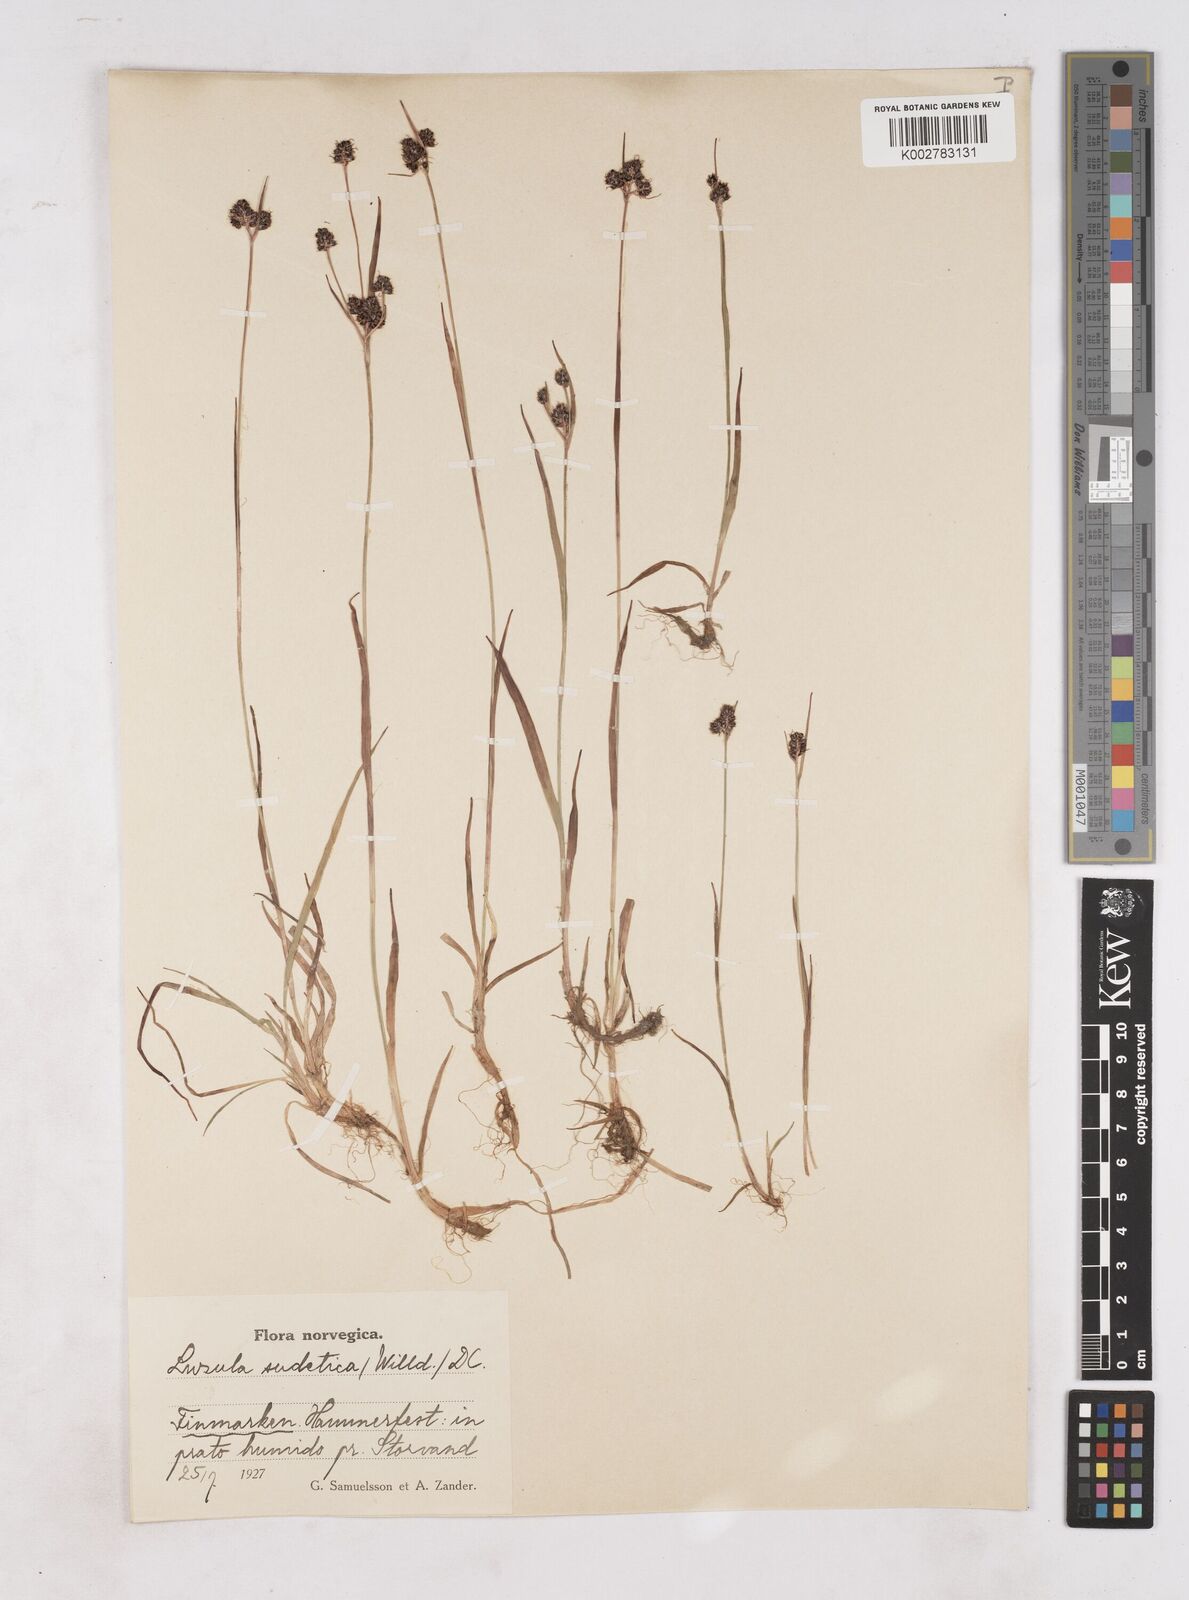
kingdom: Plantae
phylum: Tracheophyta
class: Liliopsida
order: Poales
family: Juncaceae
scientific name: Juncaceae
